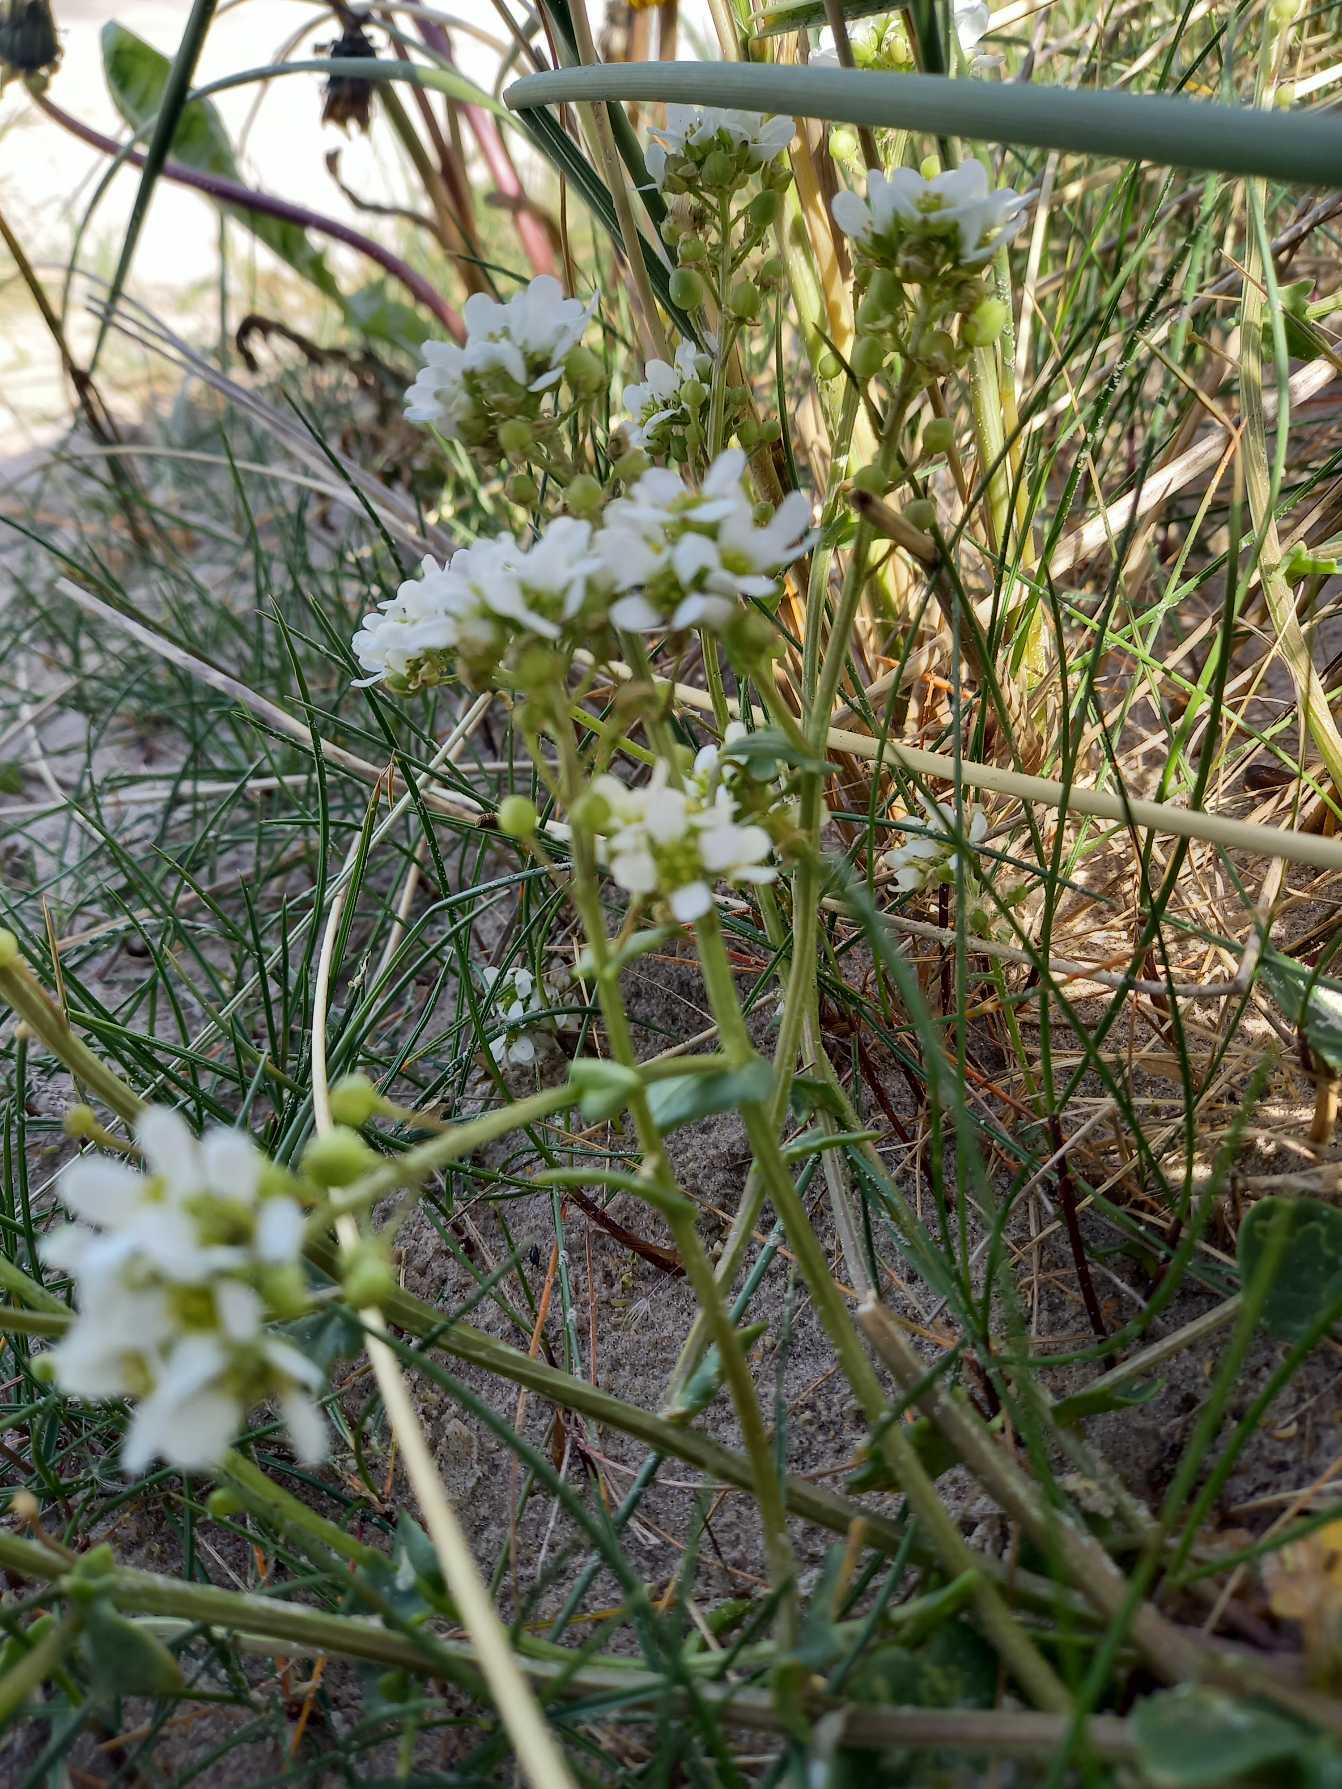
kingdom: Plantae
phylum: Tracheophyta
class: Magnoliopsida
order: Brassicales
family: Brassicaceae
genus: Cochlearia
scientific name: Cochlearia officinalis
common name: Læge-kokleare (underart)
